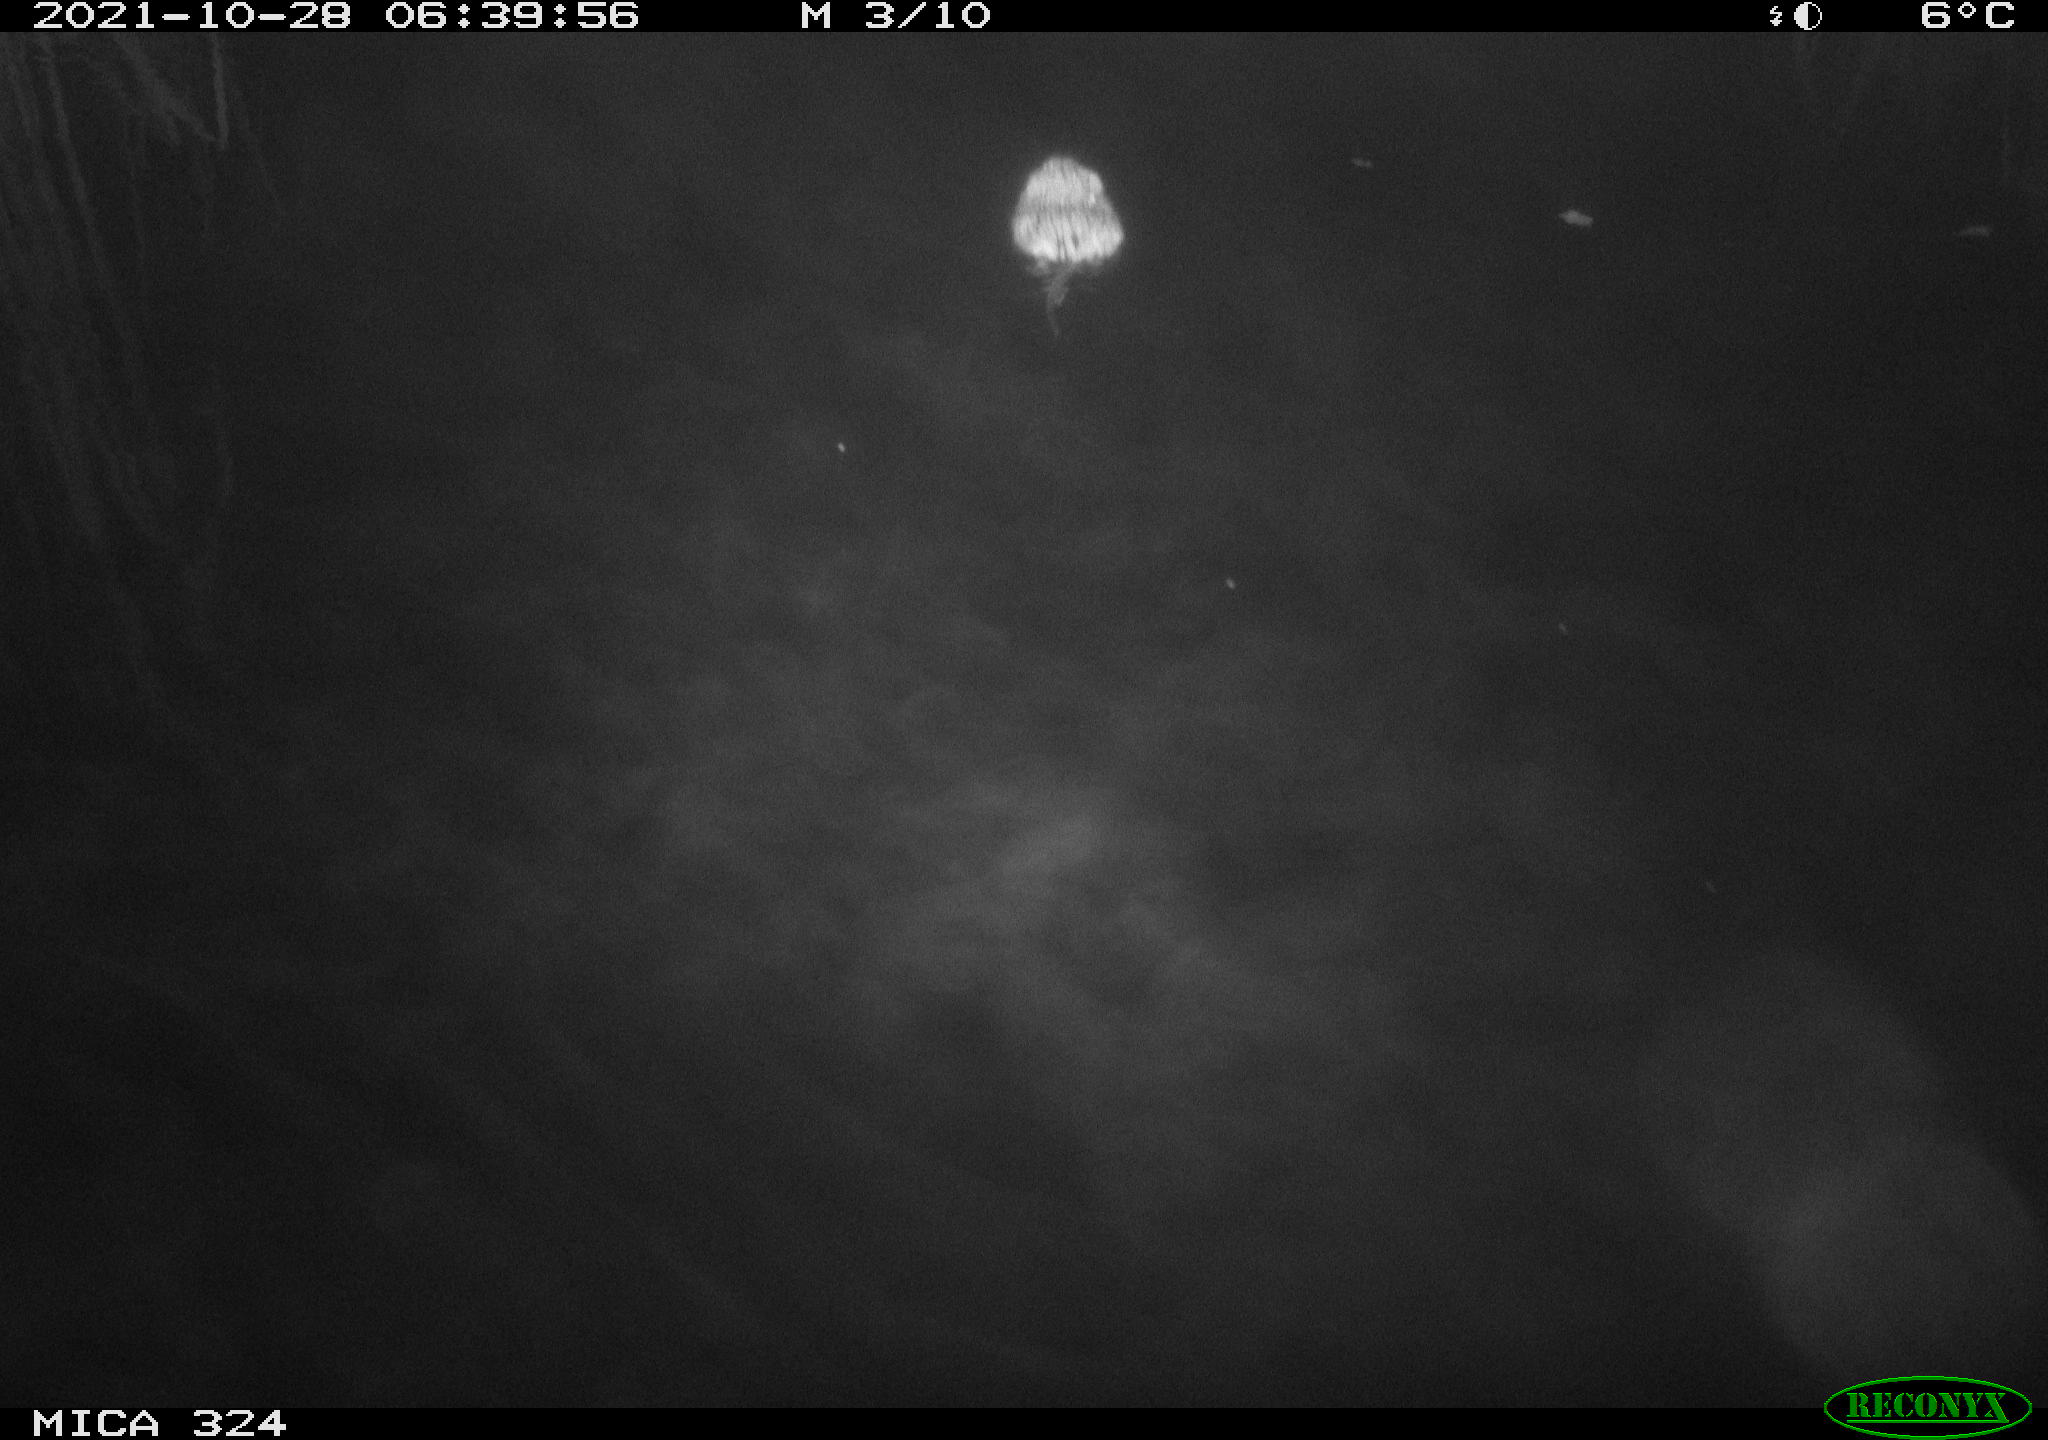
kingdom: Animalia
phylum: Chordata
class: Mammalia
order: Rodentia
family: Cricetidae
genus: Ondatra
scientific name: Ondatra zibethicus
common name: Muskrat
